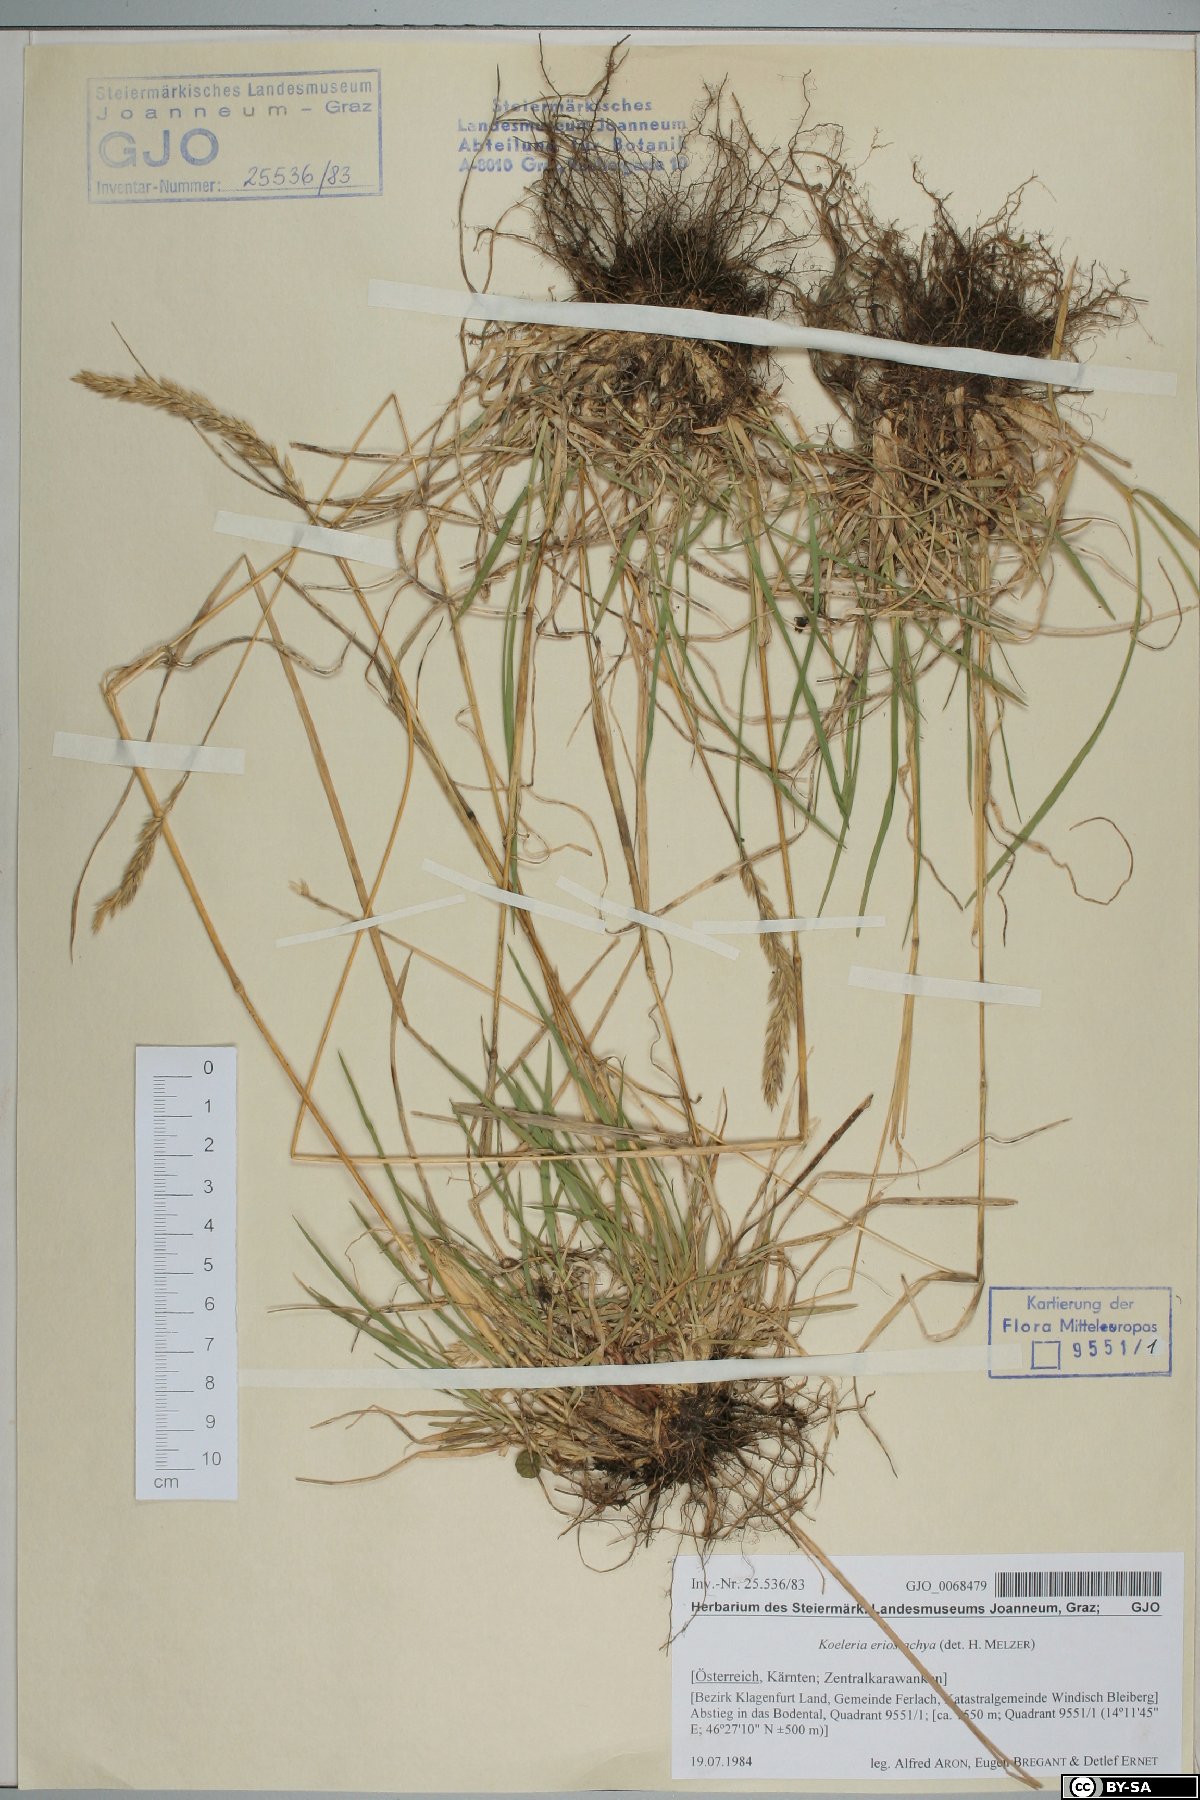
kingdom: Plantae
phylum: Tracheophyta
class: Liliopsida
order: Poales
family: Poaceae
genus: Koeleria
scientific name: Koeleria eriostachya
